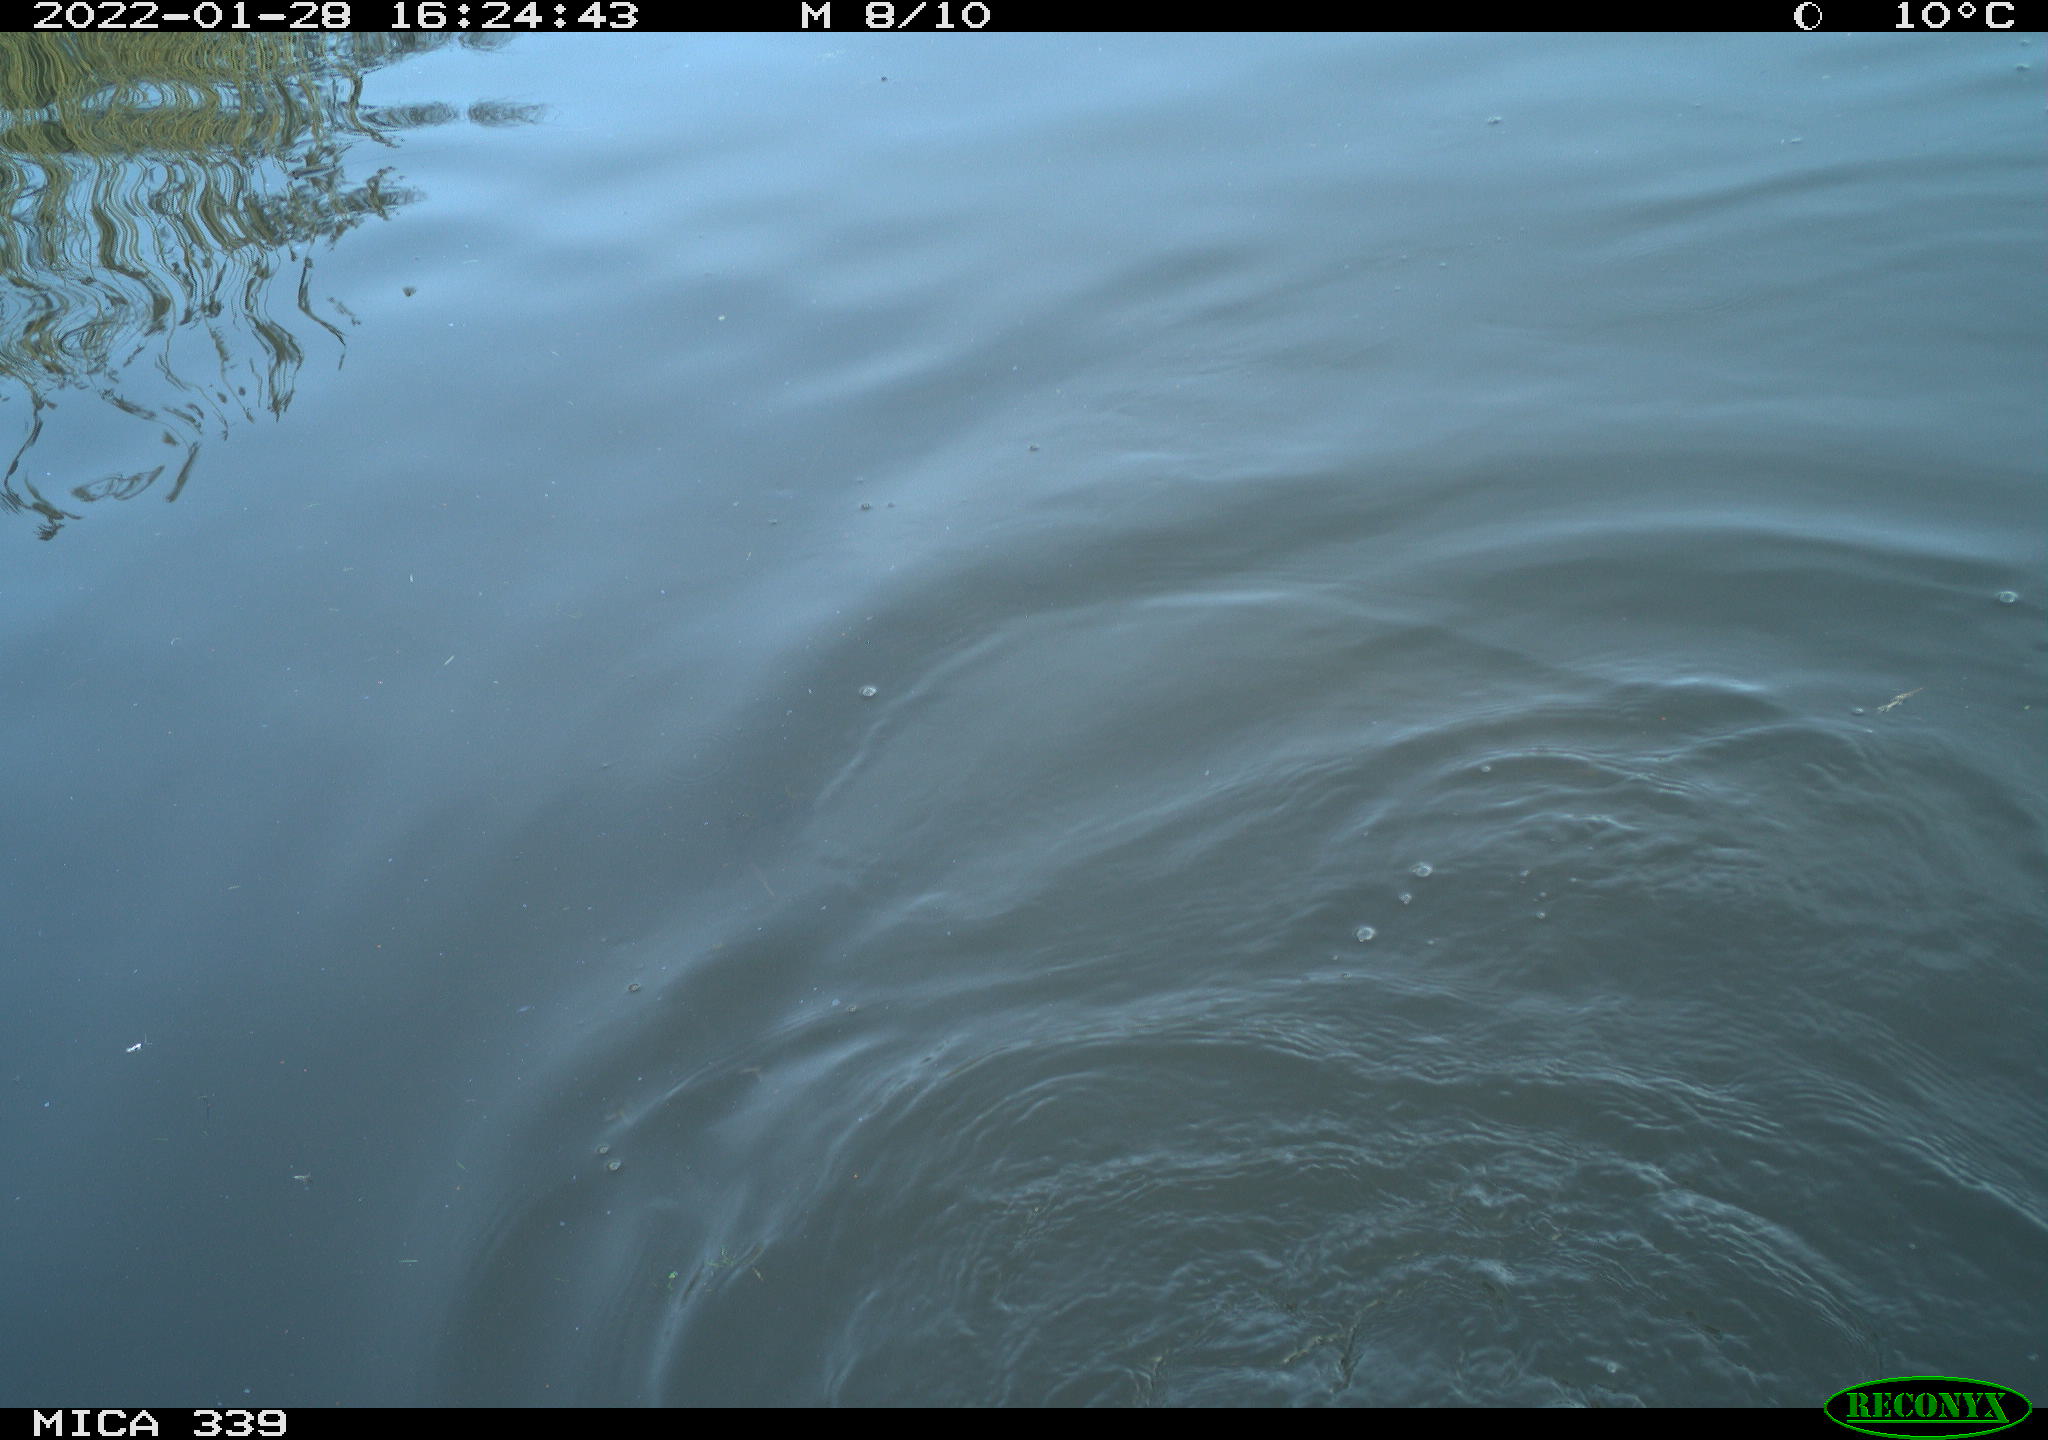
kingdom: Animalia
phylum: Chordata
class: Aves
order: Suliformes
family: Phalacrocoracidae
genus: Phalacrocorax
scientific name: Phalacrocorax carbo
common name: Great cormorant
